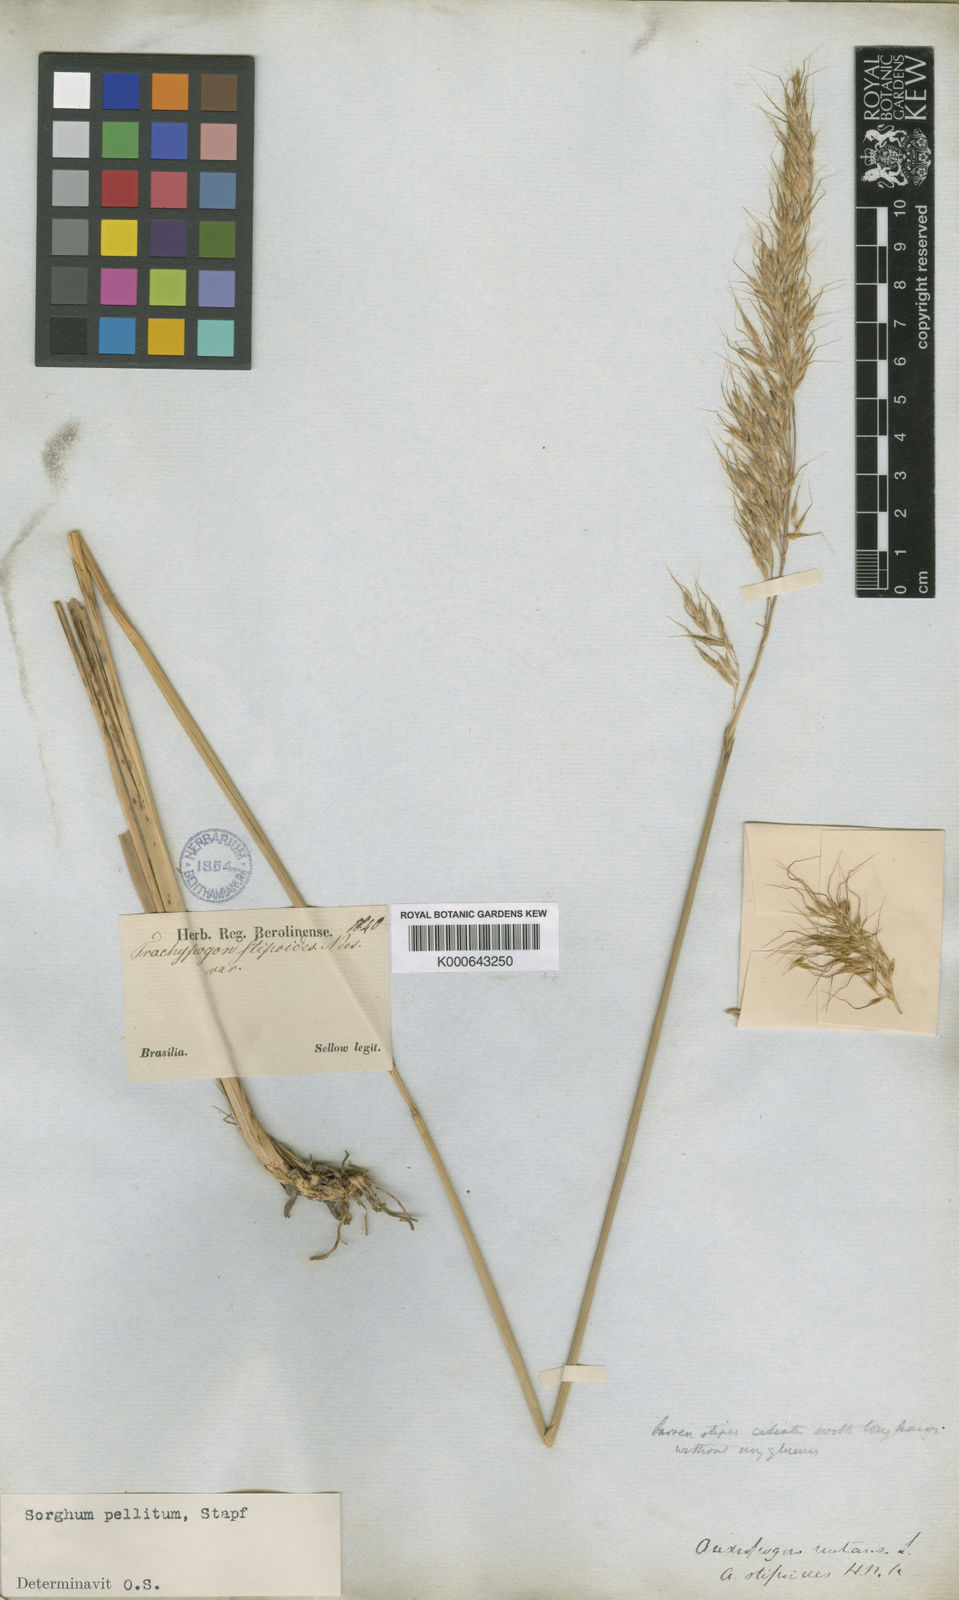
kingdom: Plantae
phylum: Tracheophyta
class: Liliopsida
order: Poales
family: Poaceae
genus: Axonopus
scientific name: Axonopus siccus
